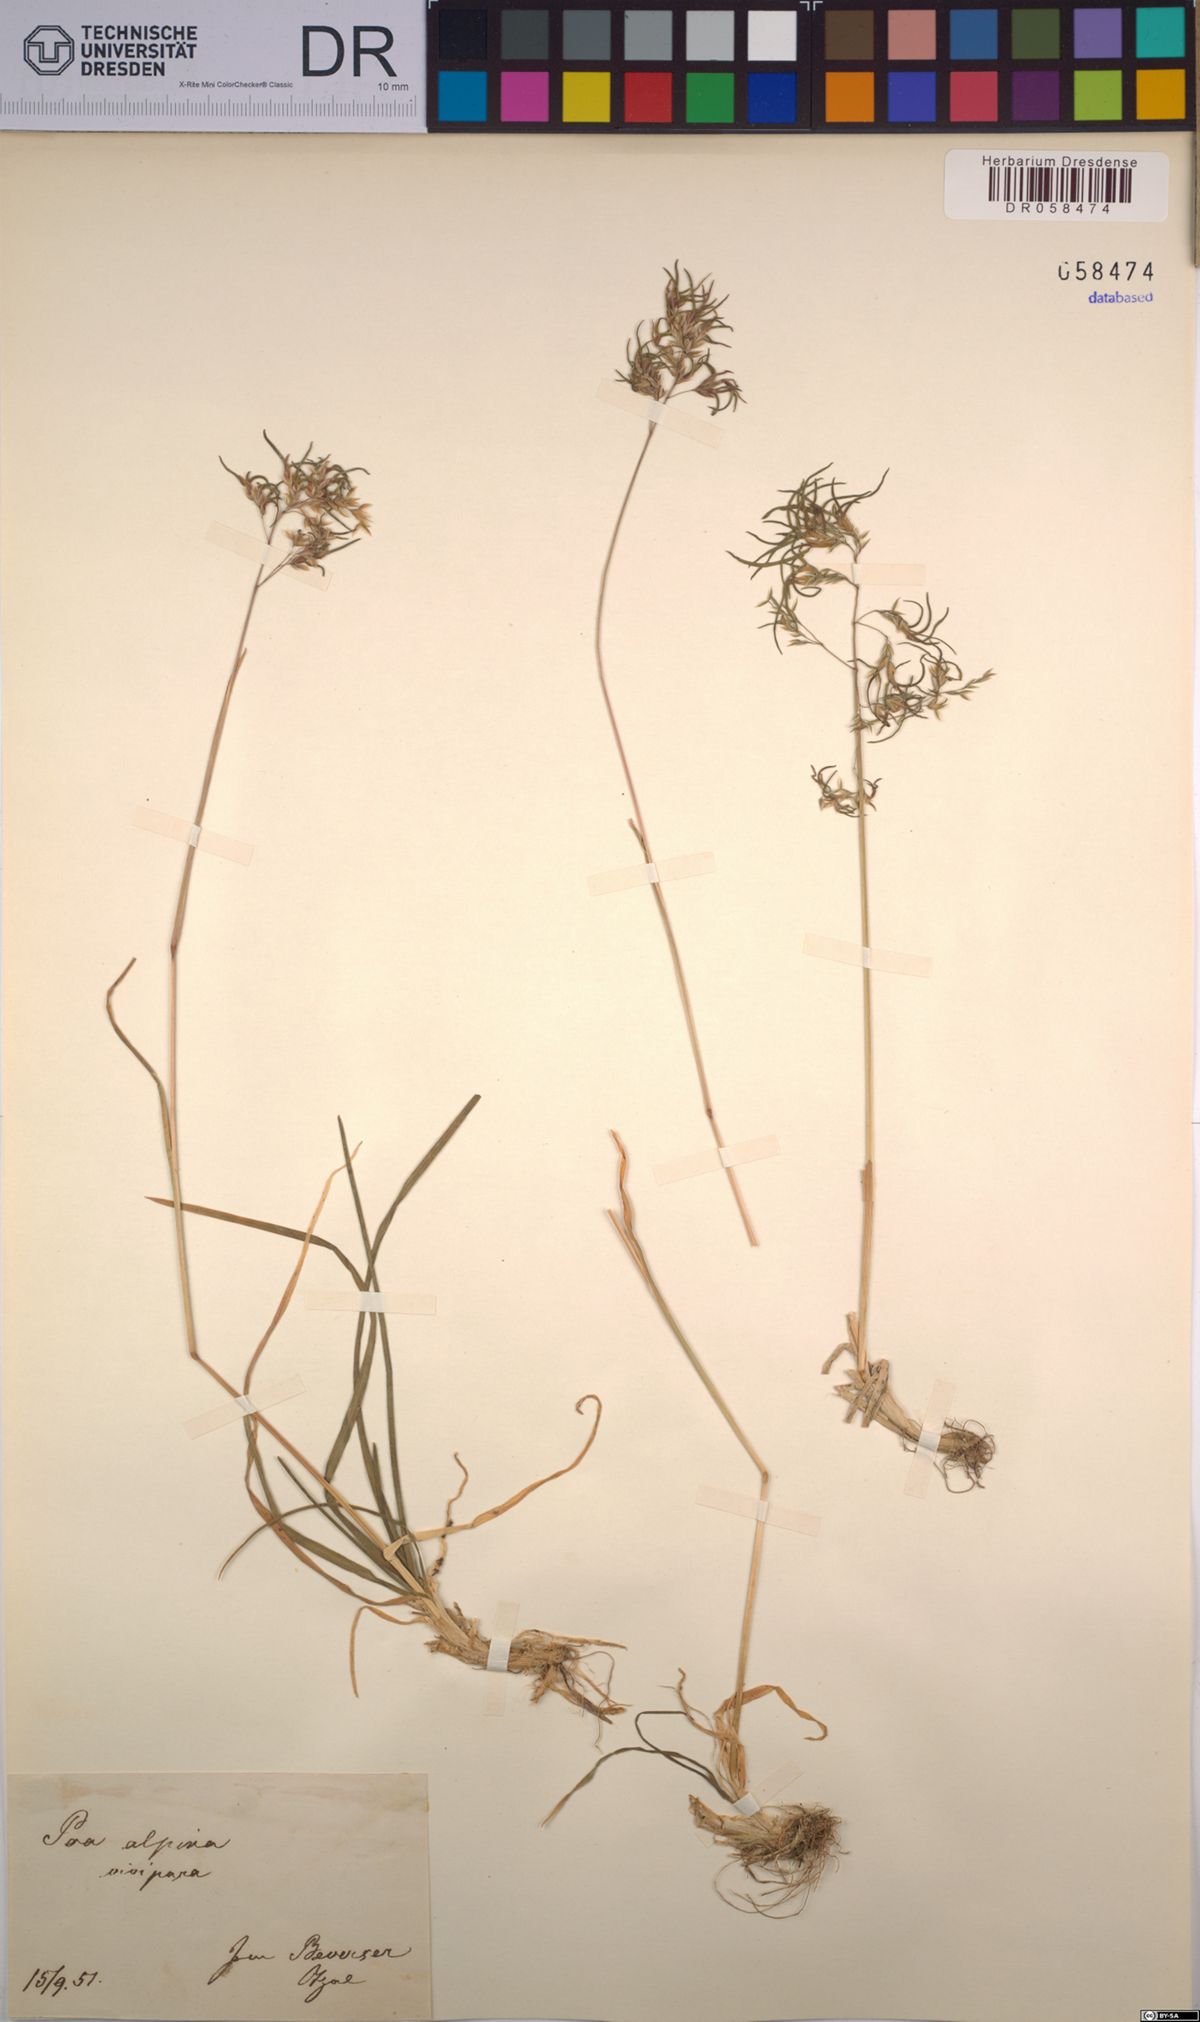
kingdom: Plantae
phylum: Tracheophyta
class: Liliopsida
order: Poales
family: Poaceae
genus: Poa
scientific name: Poa alpina
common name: Alpine bluegrass
